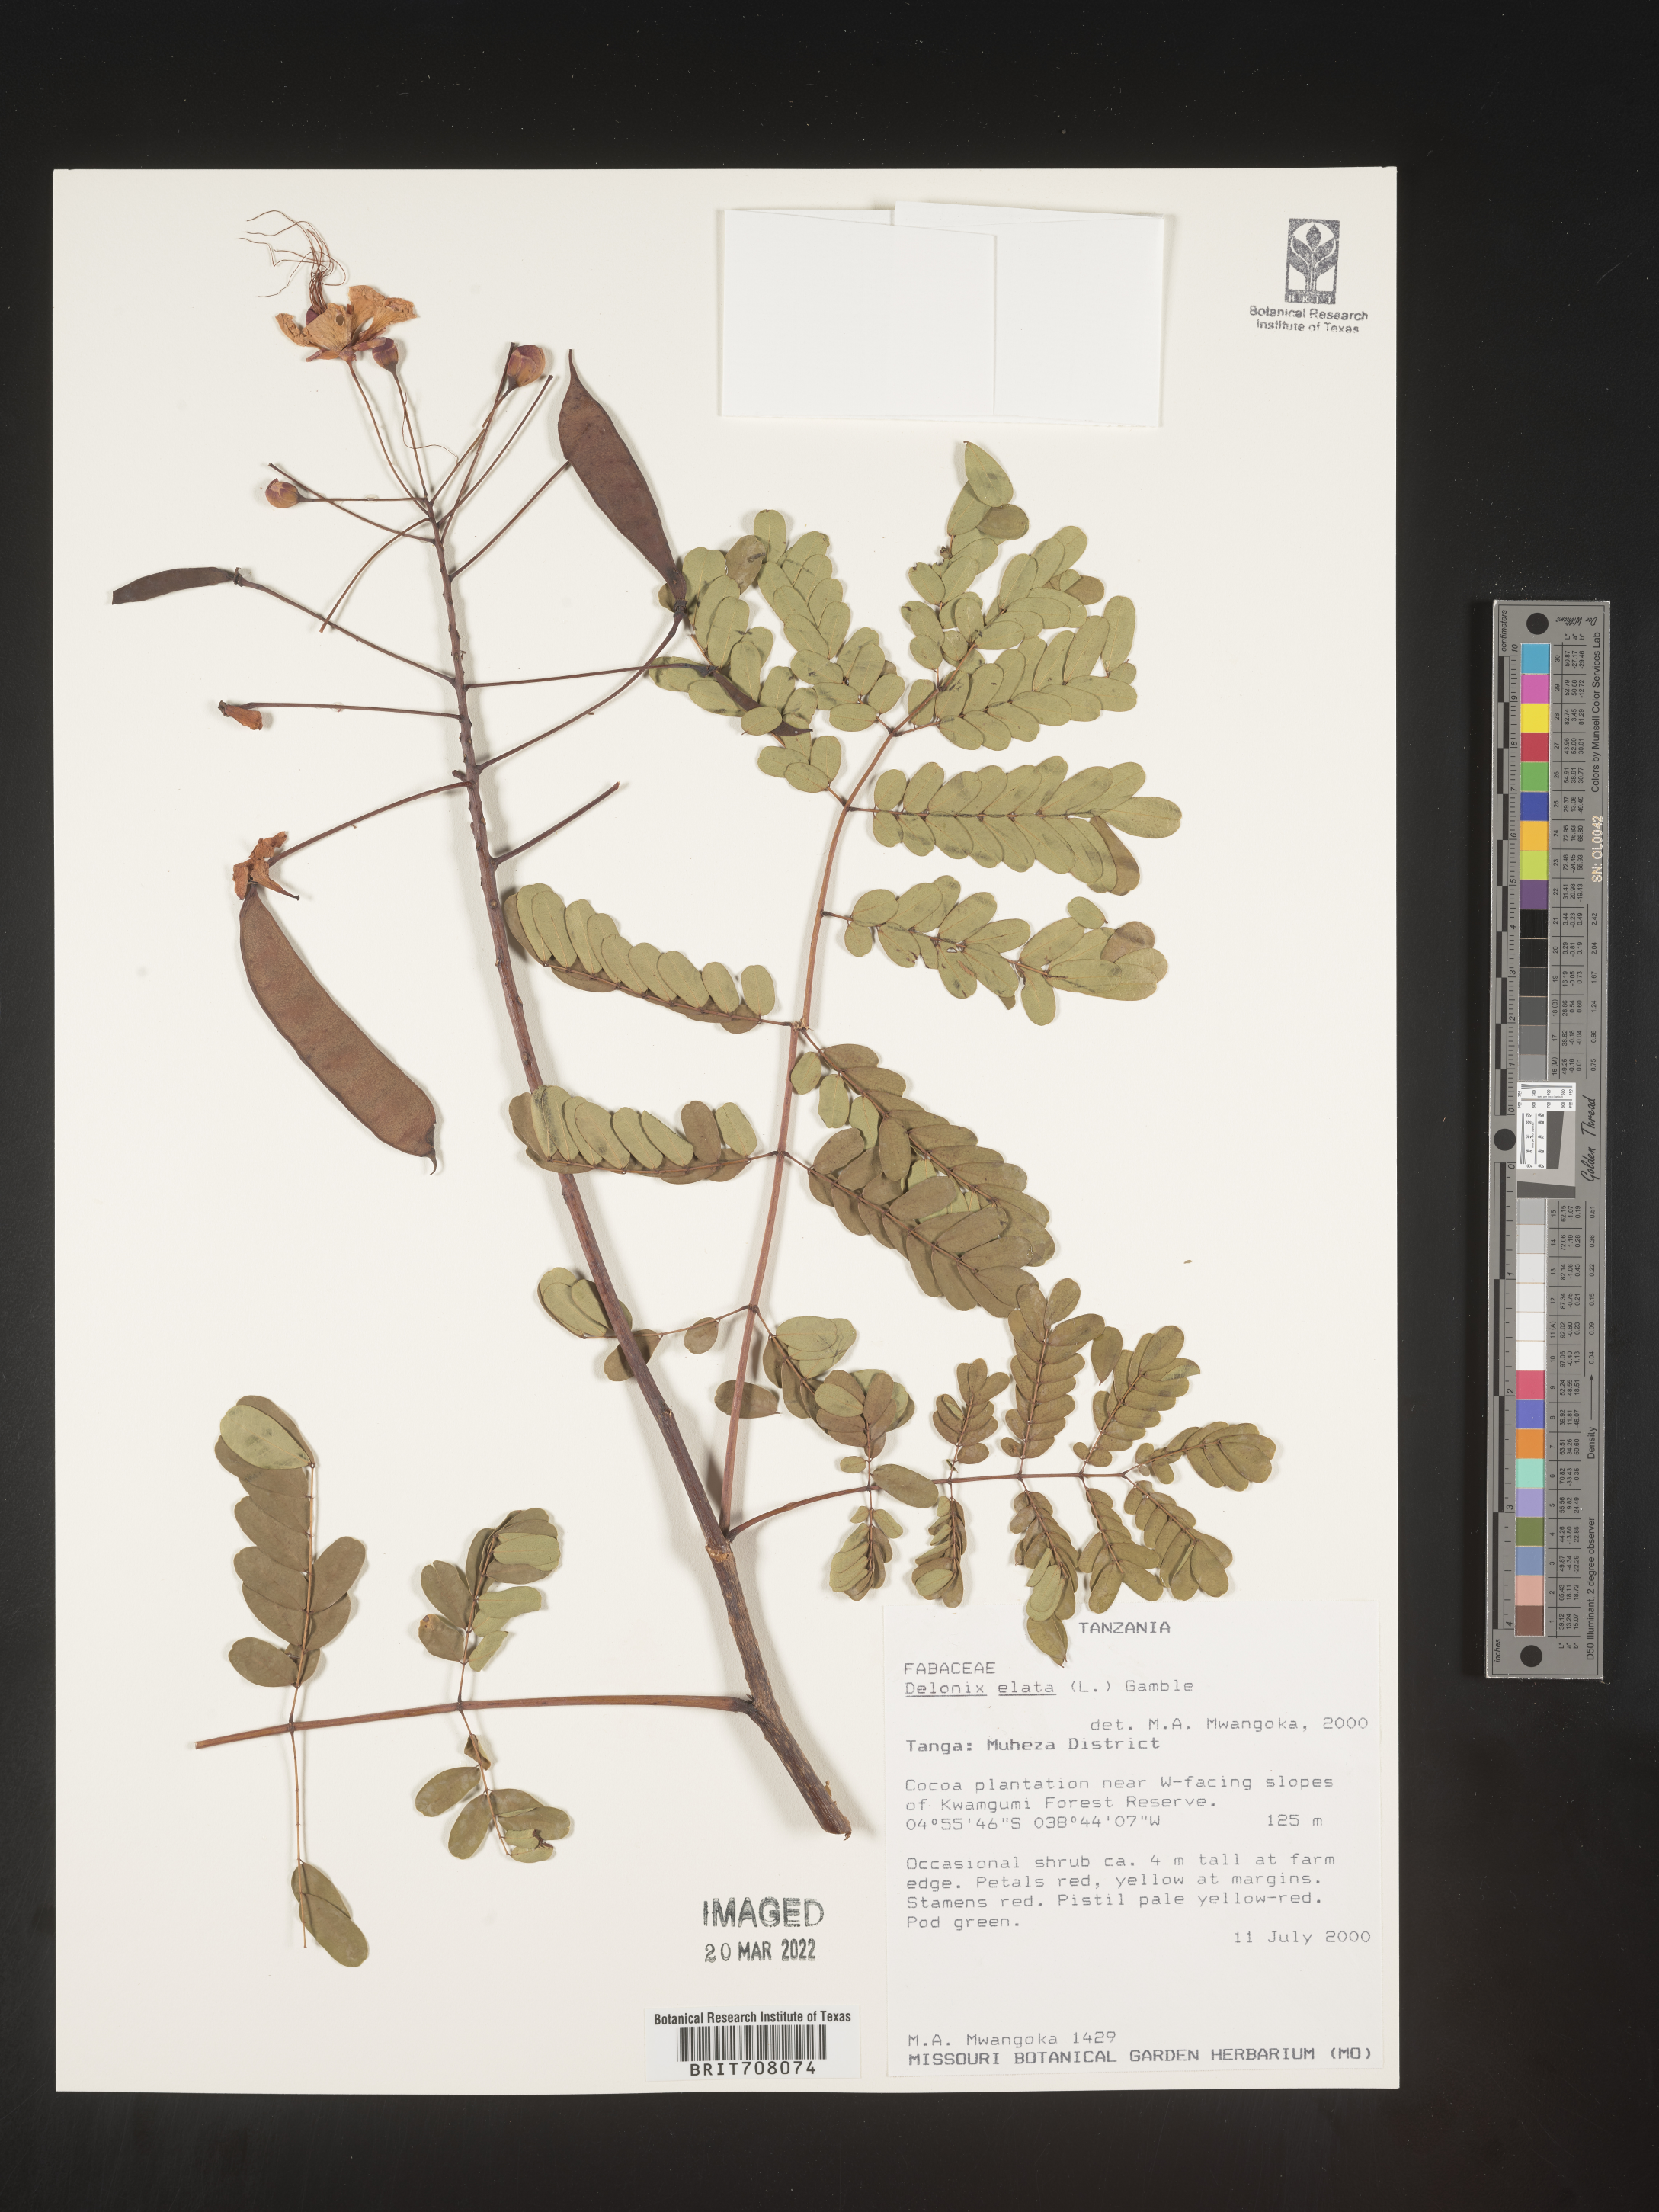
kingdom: Plantae
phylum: Tracheophyta
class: Magnoliopsida
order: Fabales
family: Fabaceae
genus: Delonix
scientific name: Delonix
